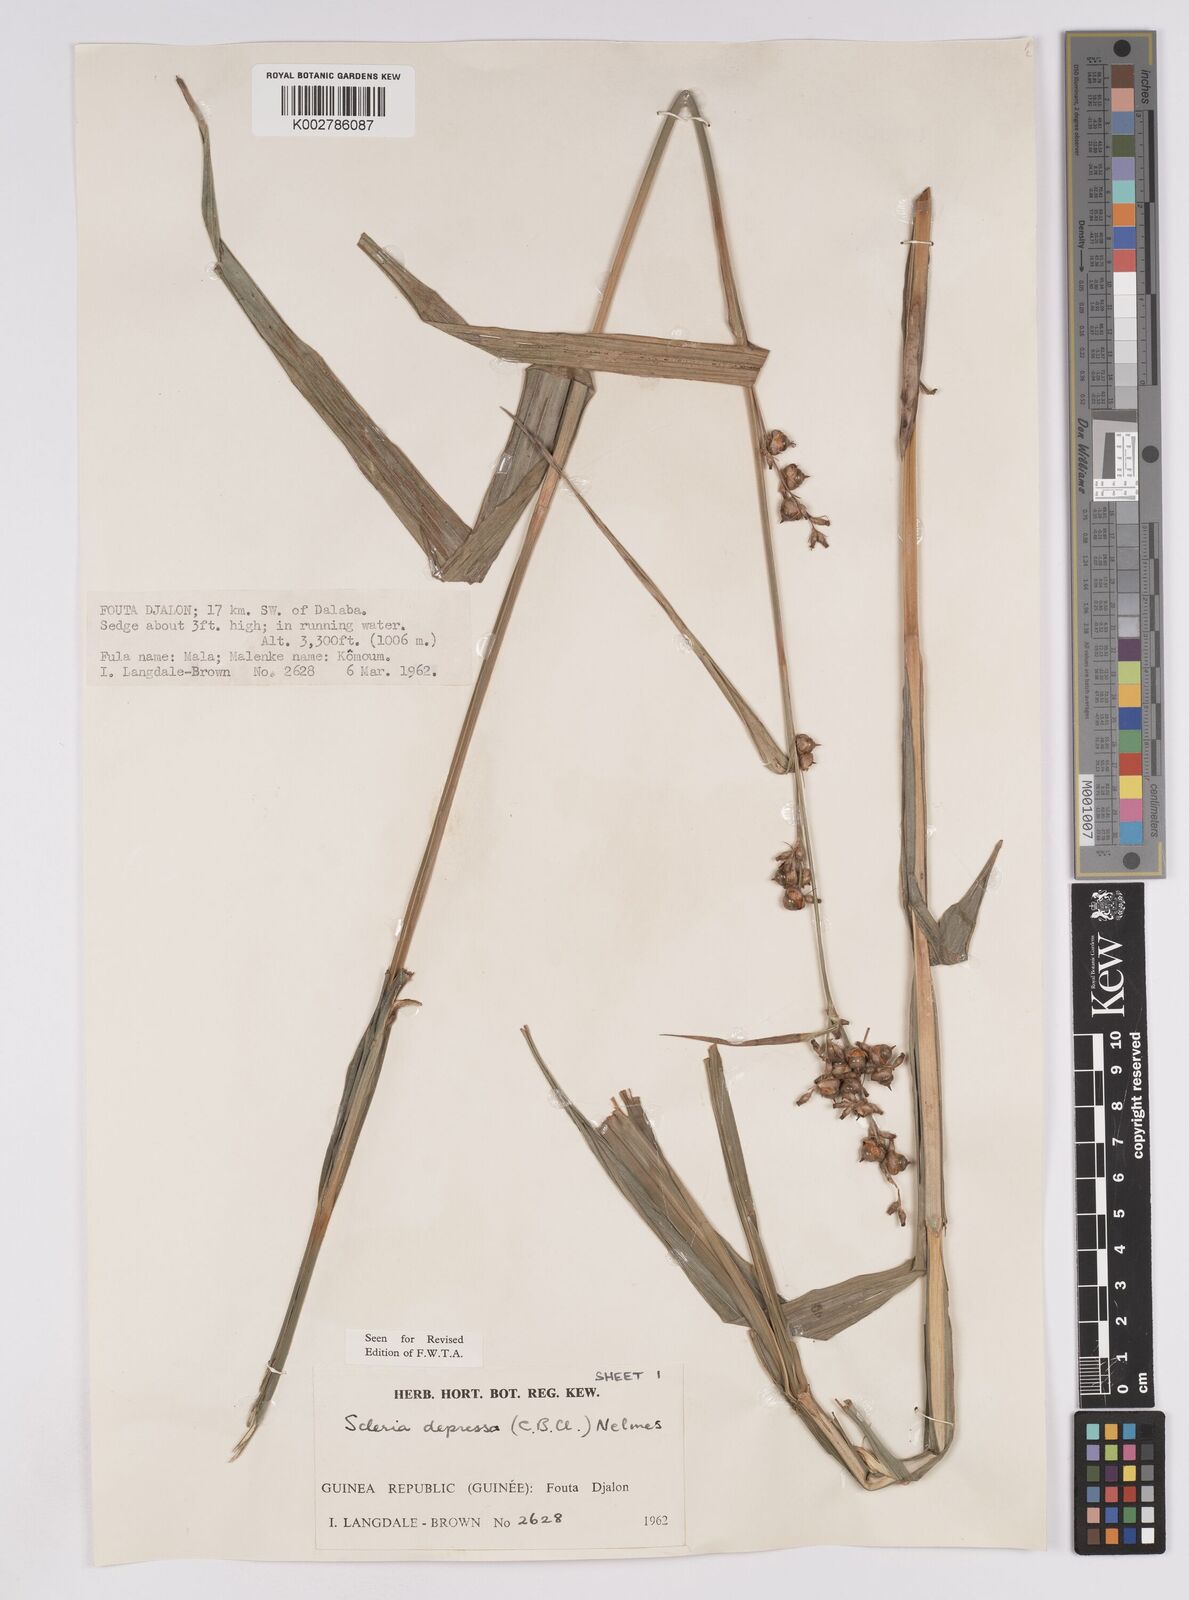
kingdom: Plantae
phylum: Tracheophyta
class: Liliopsida
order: Poales
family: Cyperaceae
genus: Scleria
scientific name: Scleria depressa
